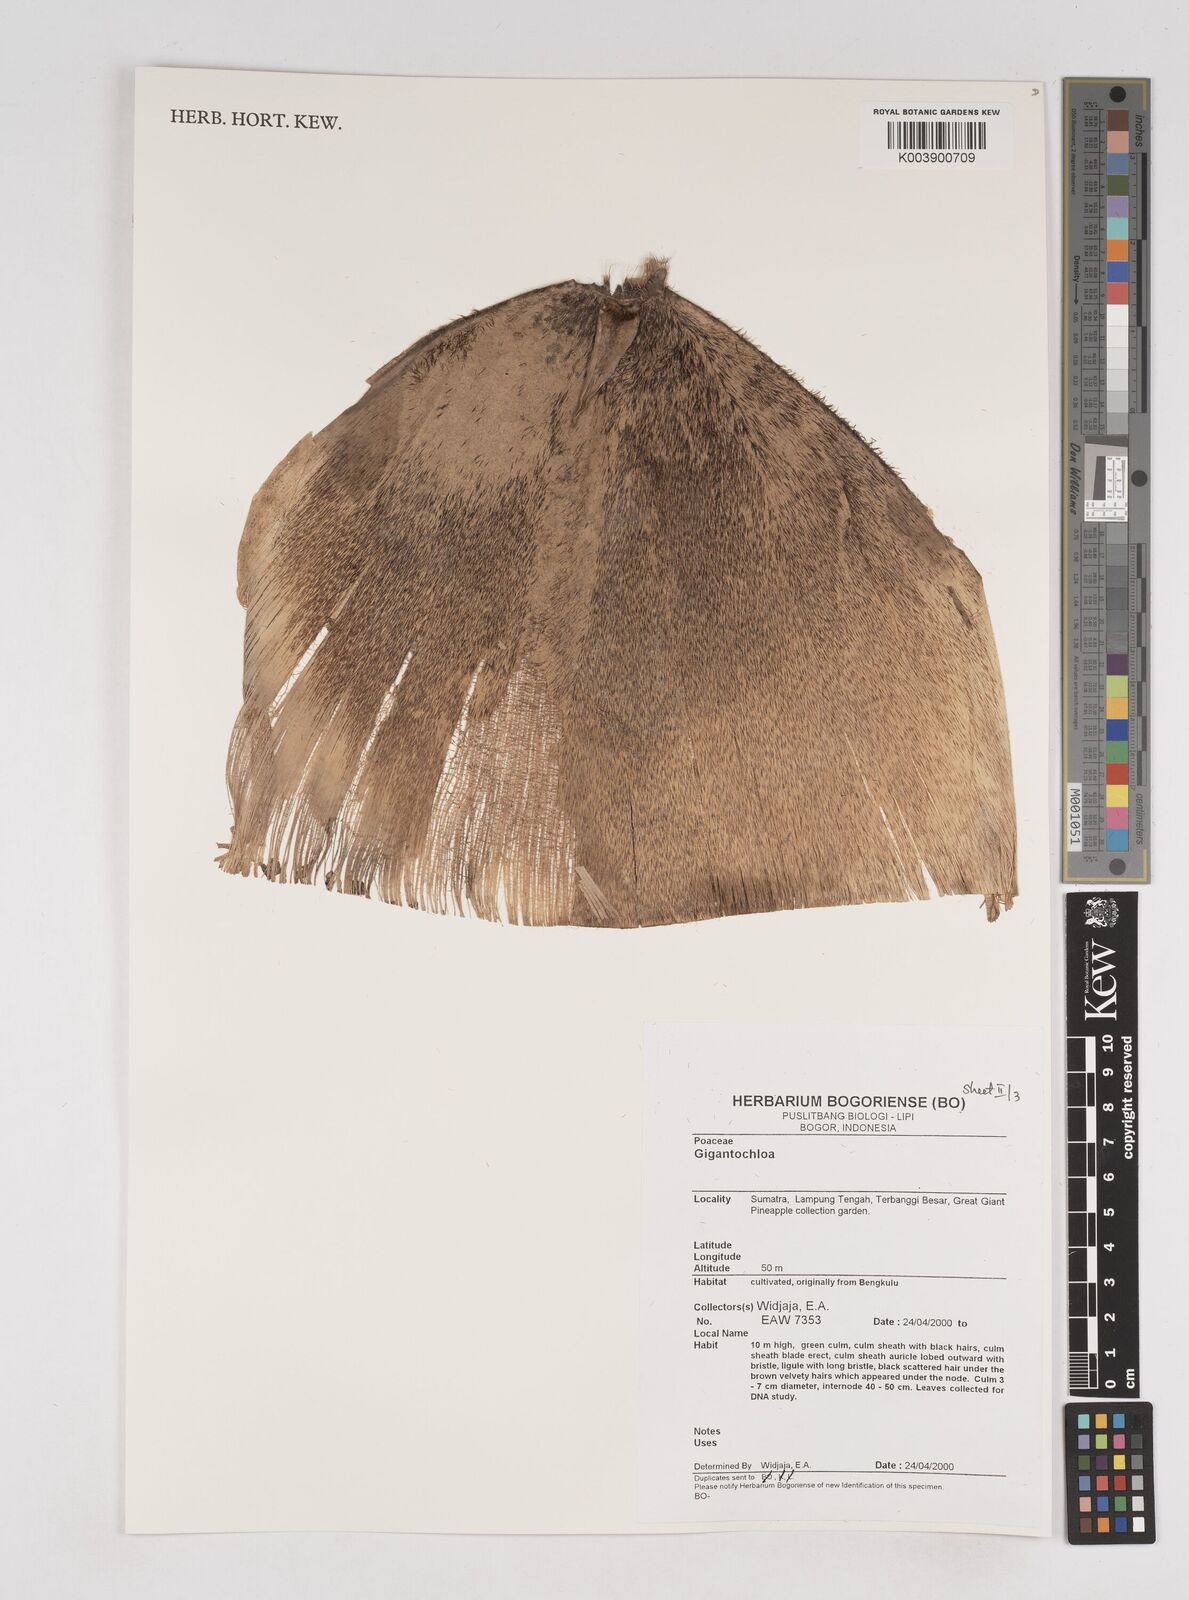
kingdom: Plantae
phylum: Tracheophyta
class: Liliopsida
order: Poales
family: Poaceae
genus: Gigantochloa
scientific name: Gigantochloa
